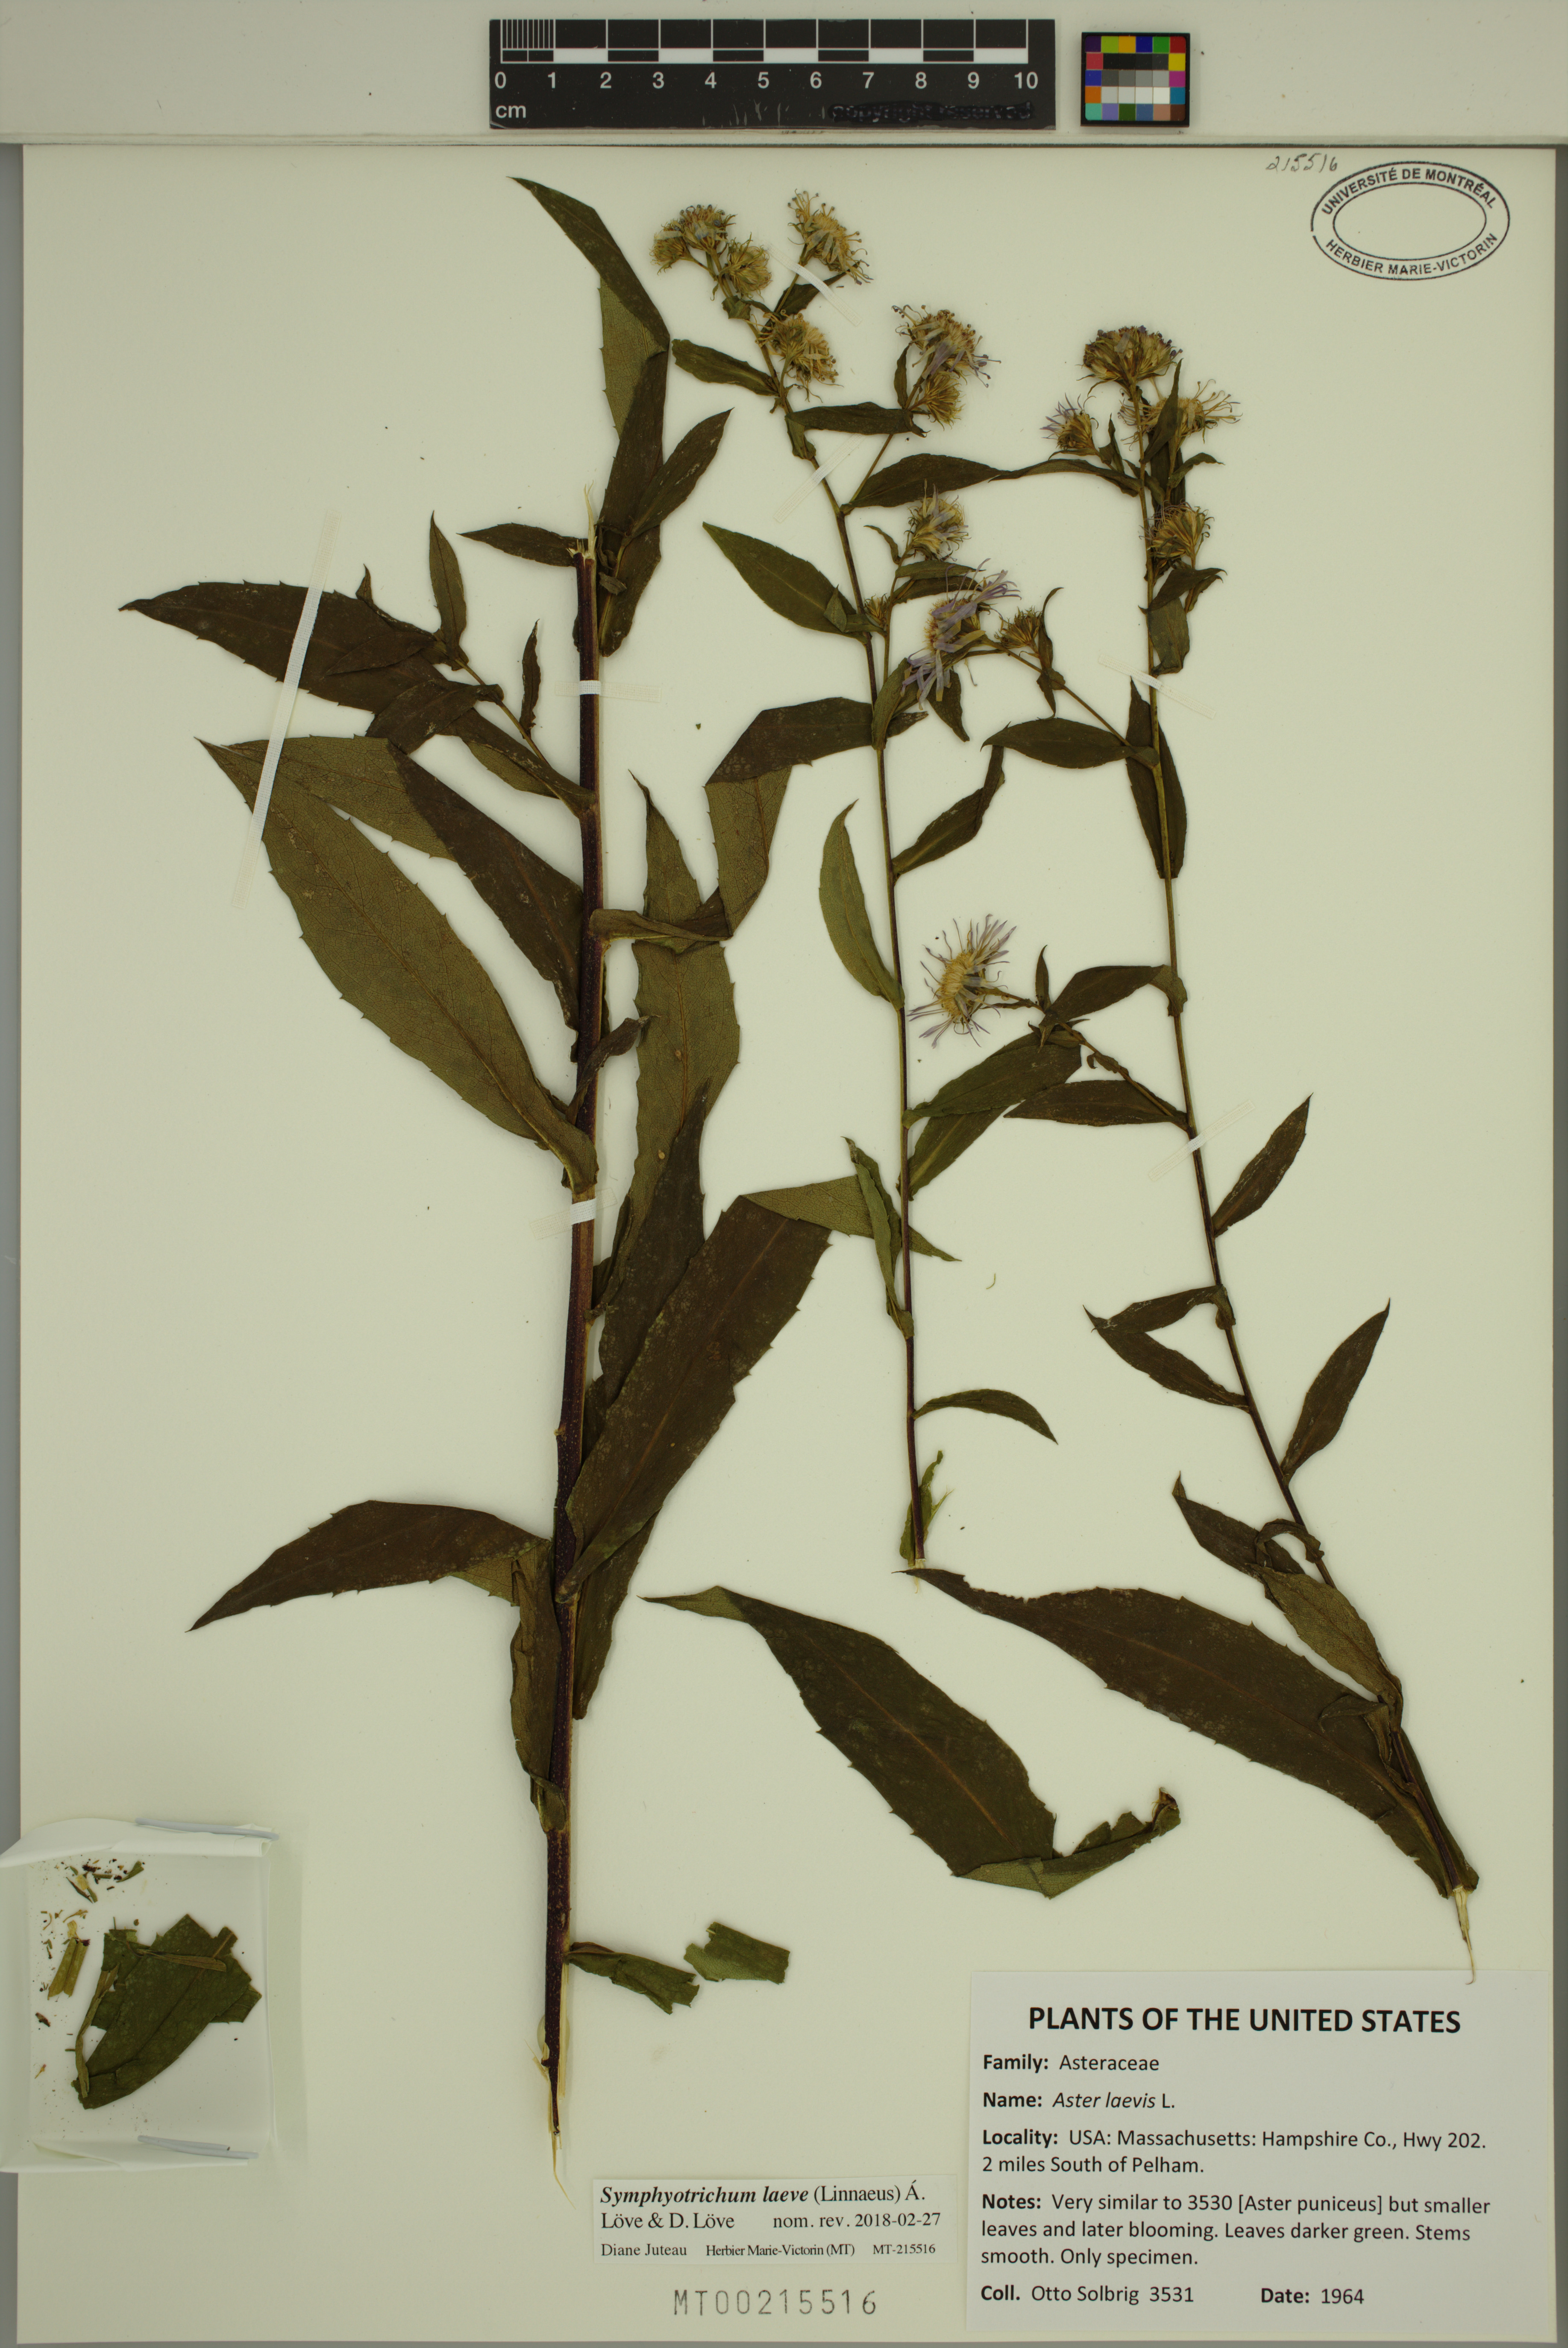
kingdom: Plantae
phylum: Tracheophyta
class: Magnoliopsida
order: Asterales
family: Asteraceae
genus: Symphyotrichum
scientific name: Symphyotrichum puniceum
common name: Bog aster
